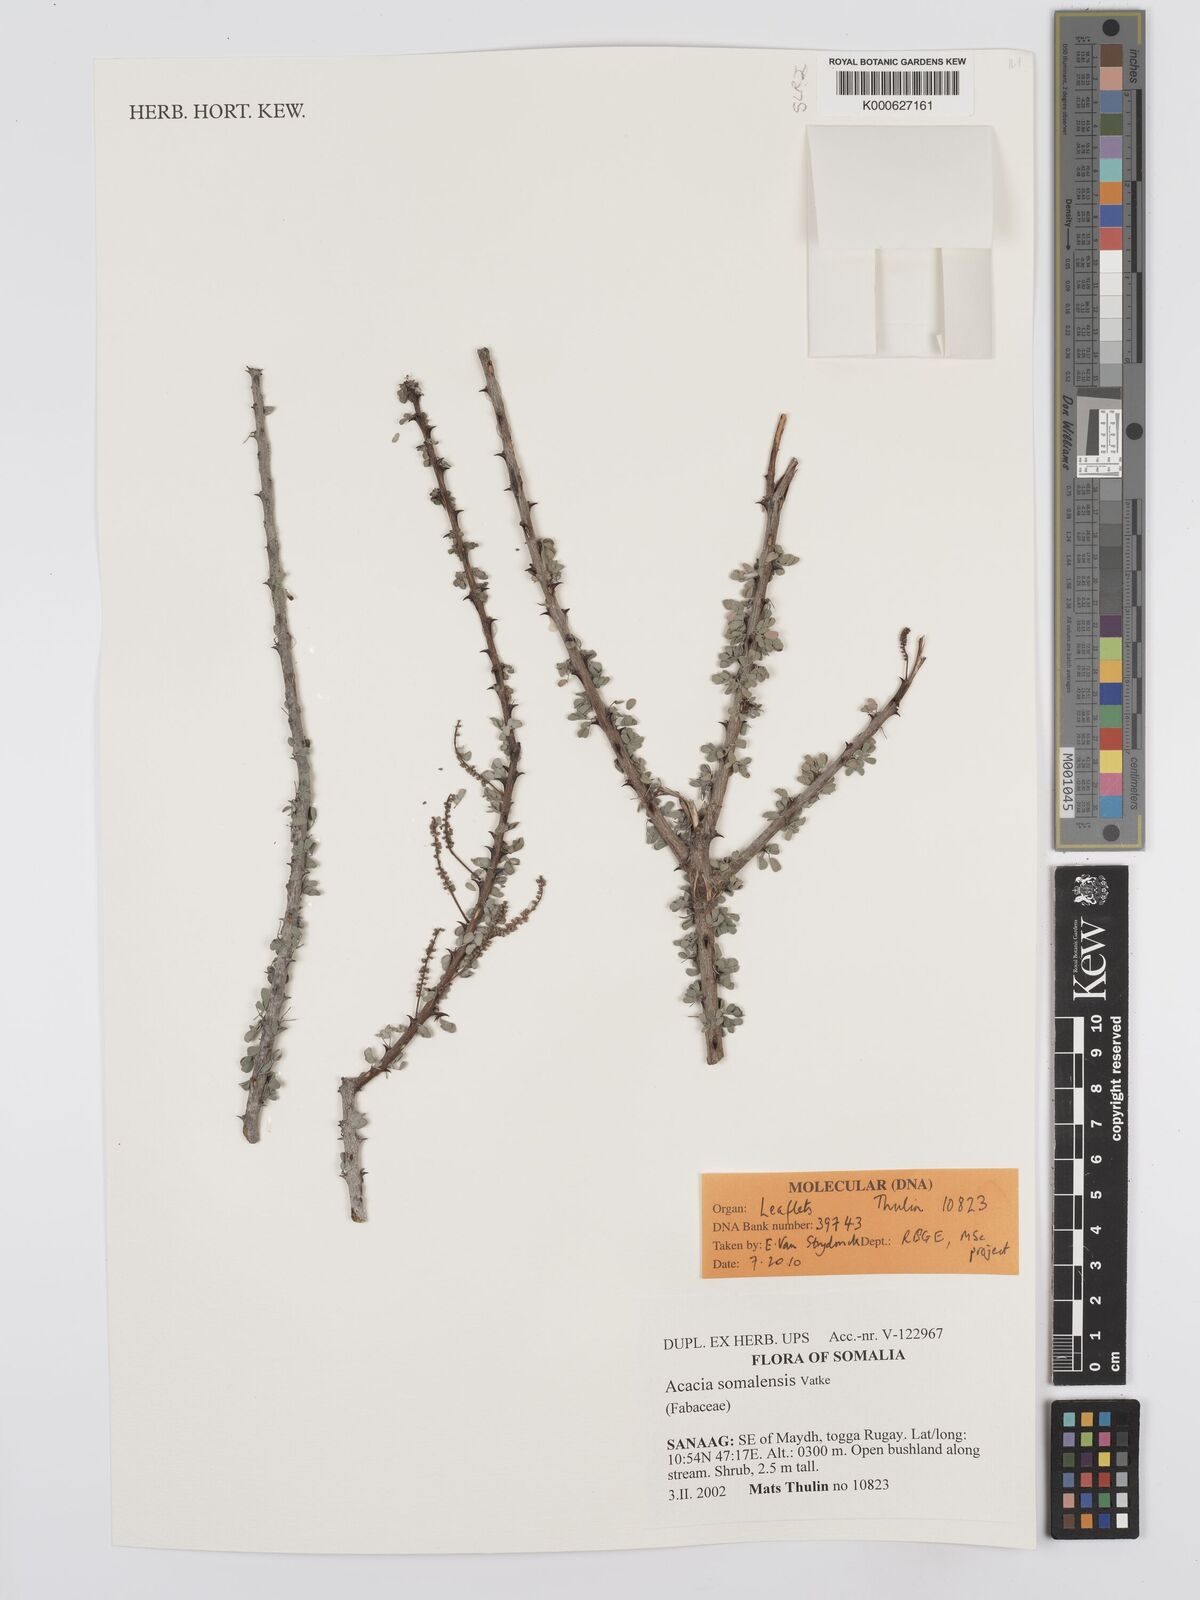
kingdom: Plantae
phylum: Tracheophyta
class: Magnoliopsida
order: Fabales
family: Fabaceae
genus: Senegalia
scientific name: Senegalia somalensis
